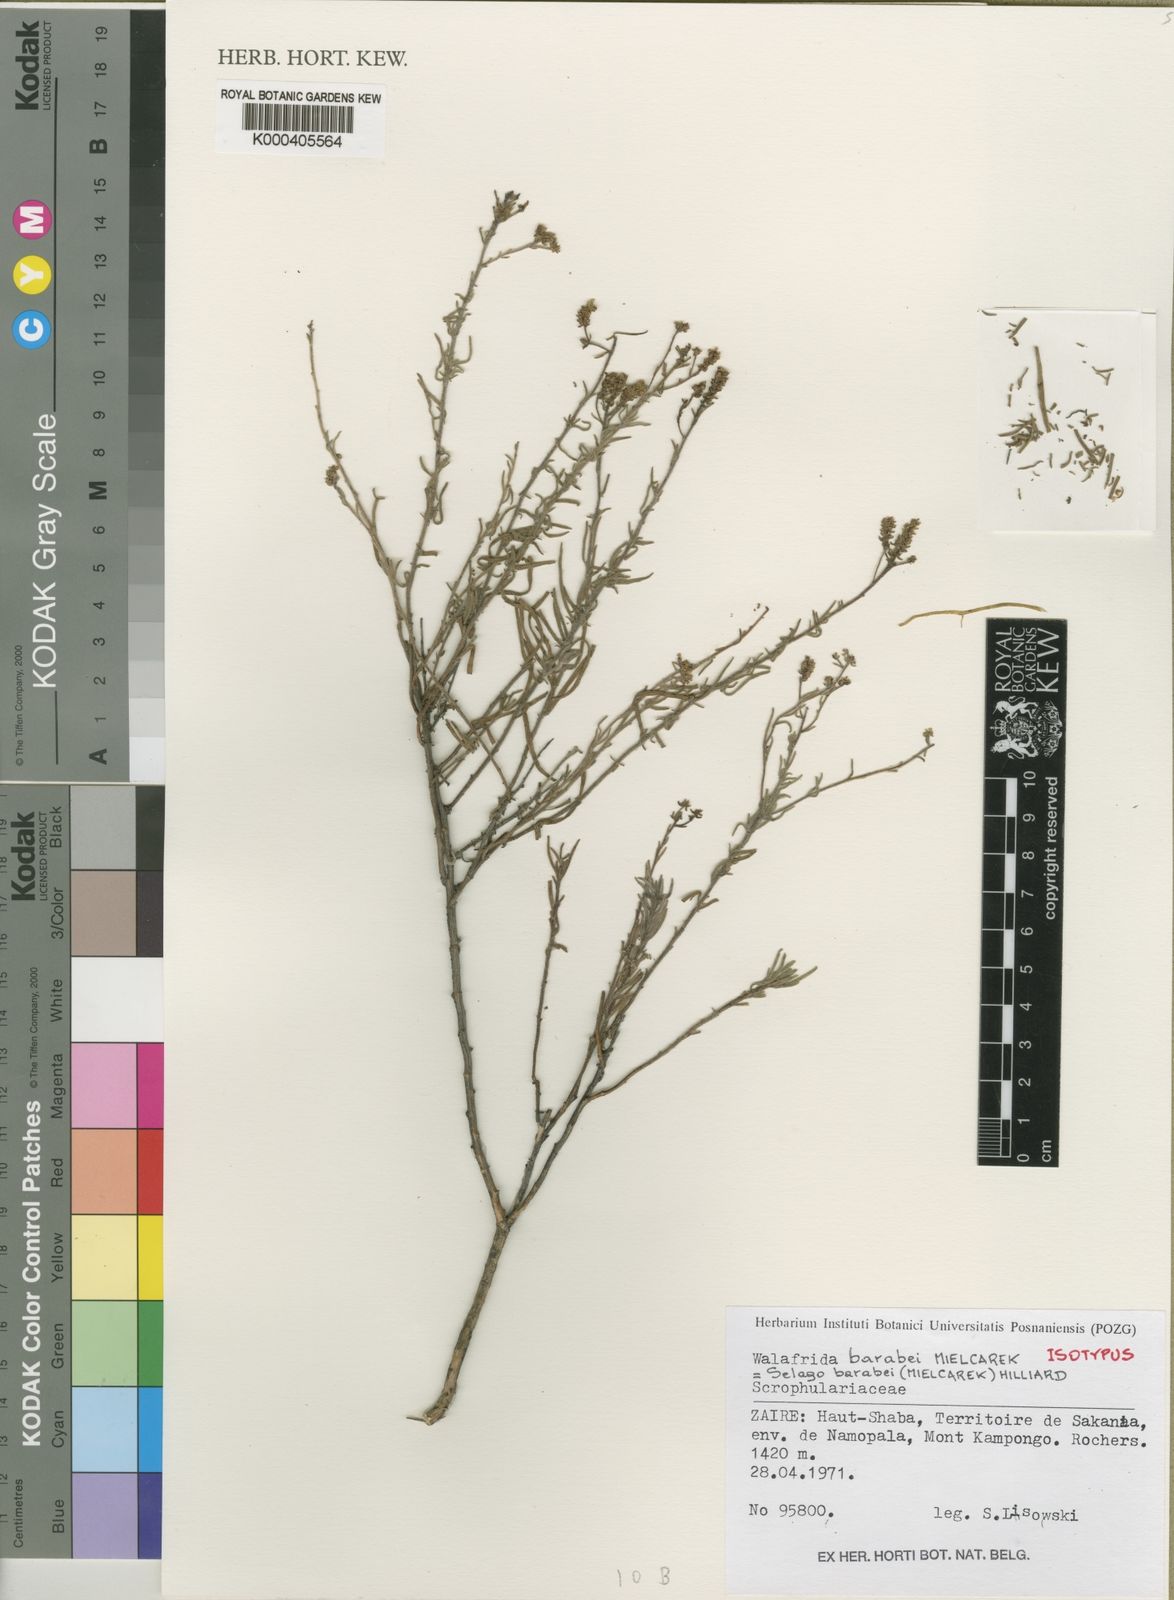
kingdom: Plantae
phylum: Tracheophyta
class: Magnoliopsida
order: Lamiales
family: Scrophulariaceae
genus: Selago
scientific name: Selago barabei
